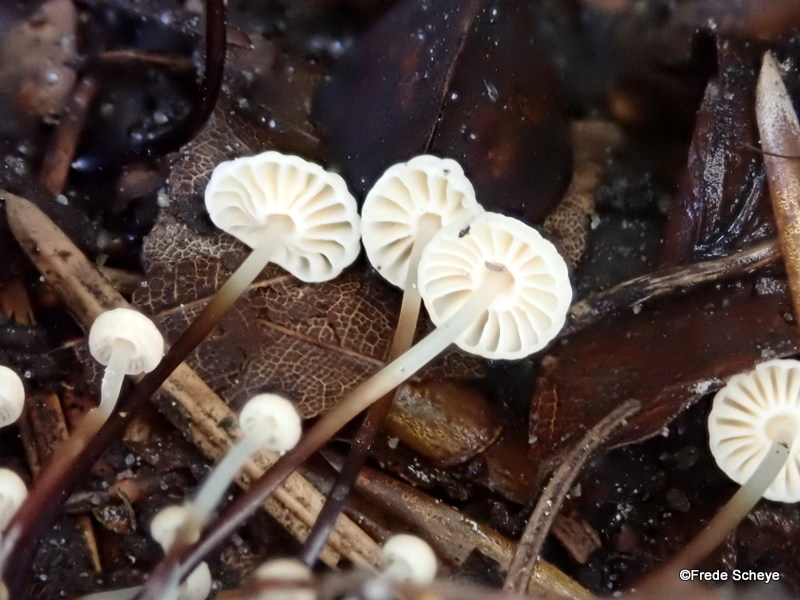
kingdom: Fungi
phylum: Basidiomycota
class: Agaricomycetes
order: Agaricales
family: Marasmiaceae
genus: Marasmius
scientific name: Marasmius rotula
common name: hjul-bruskhat
